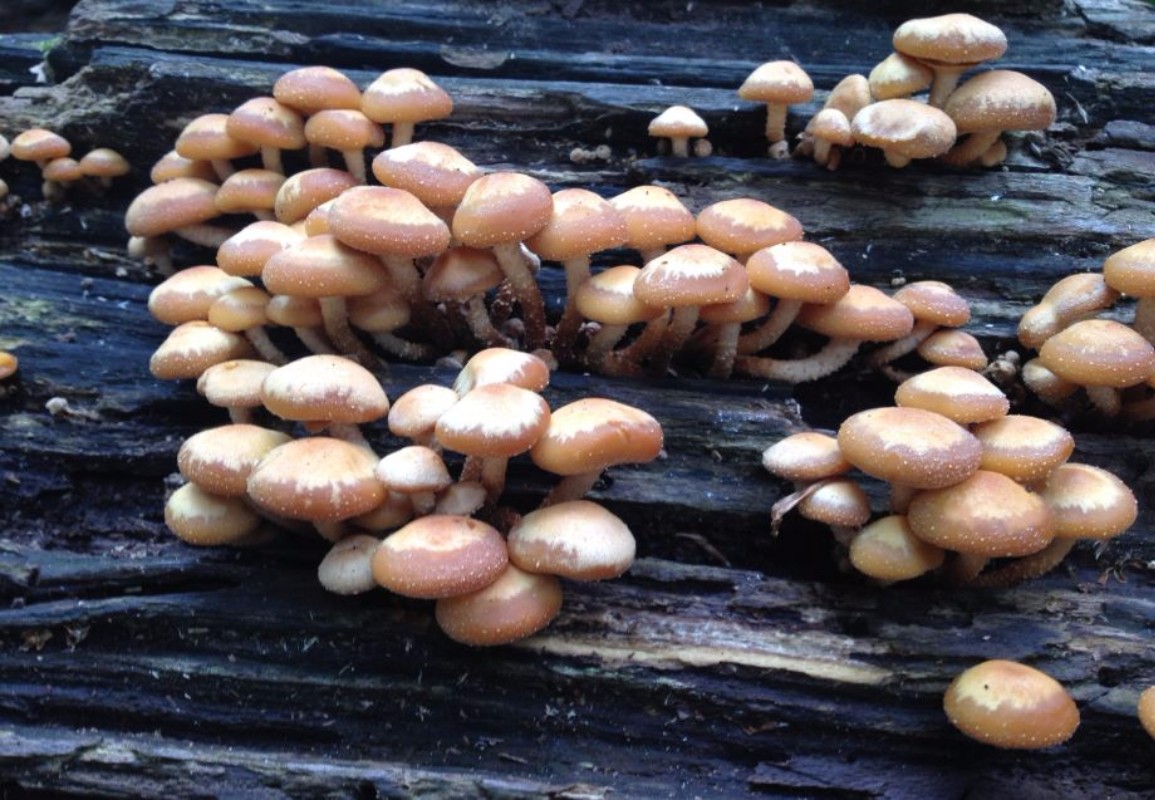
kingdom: Fungi
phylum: Basidiomycota
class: Agaricomycetes
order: Agaricales
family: Strophariaceae
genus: Kuehneromyces
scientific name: Kuehneromyces mutabilis
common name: foranderlig skælhat
